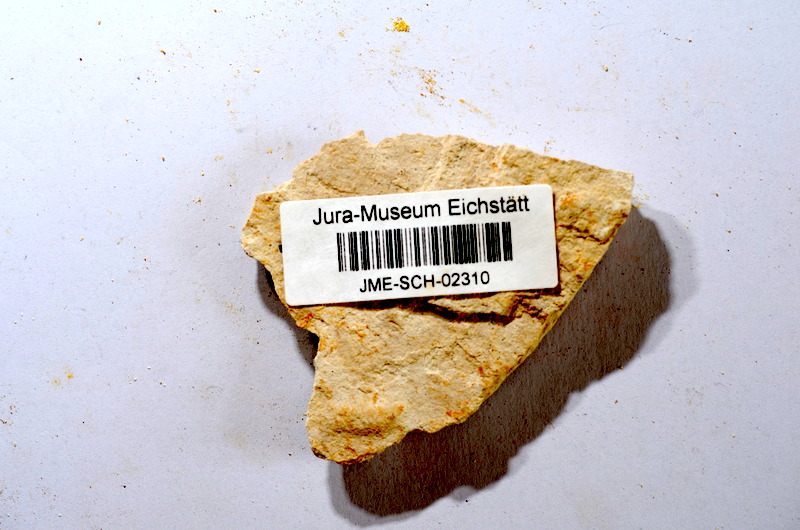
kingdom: Animalia
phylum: Chordata
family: Ascalaboidae
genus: Tharsis
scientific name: Tharsis dubius
